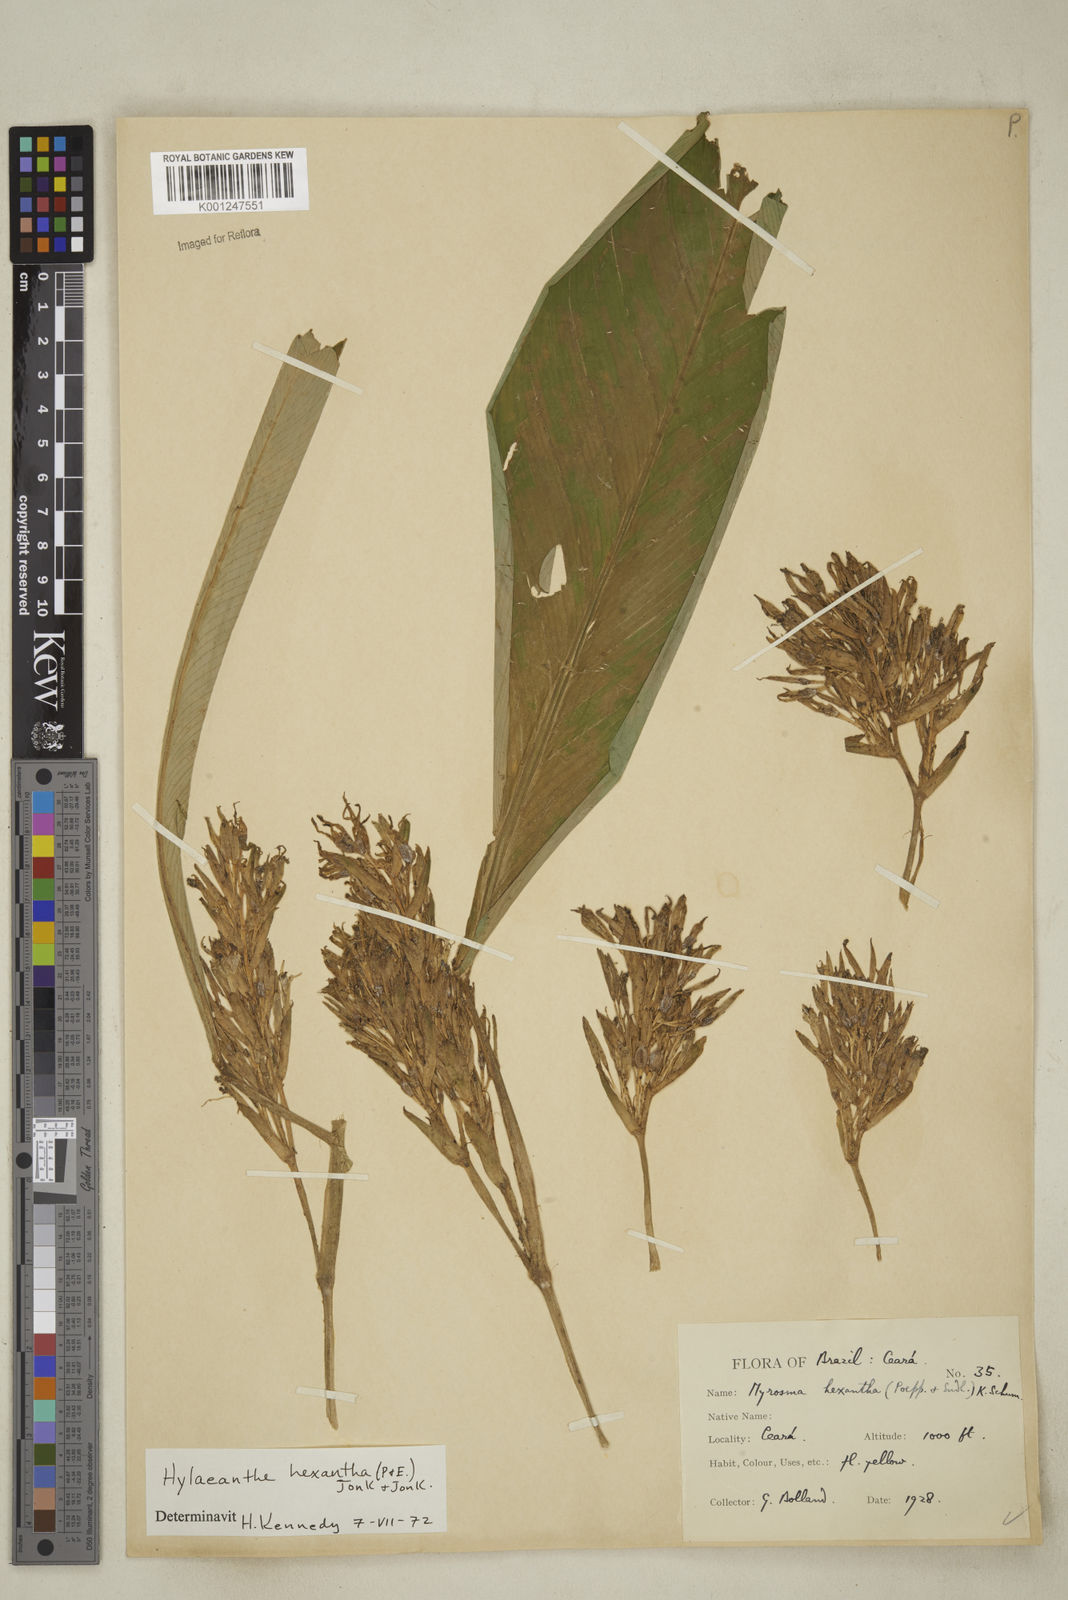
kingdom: Plantae
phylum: Tracheophyta
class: Liliopsida
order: Zingiberales
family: Marantaceae
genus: Hylaeanthe
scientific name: Hylaeanthe hexantha
